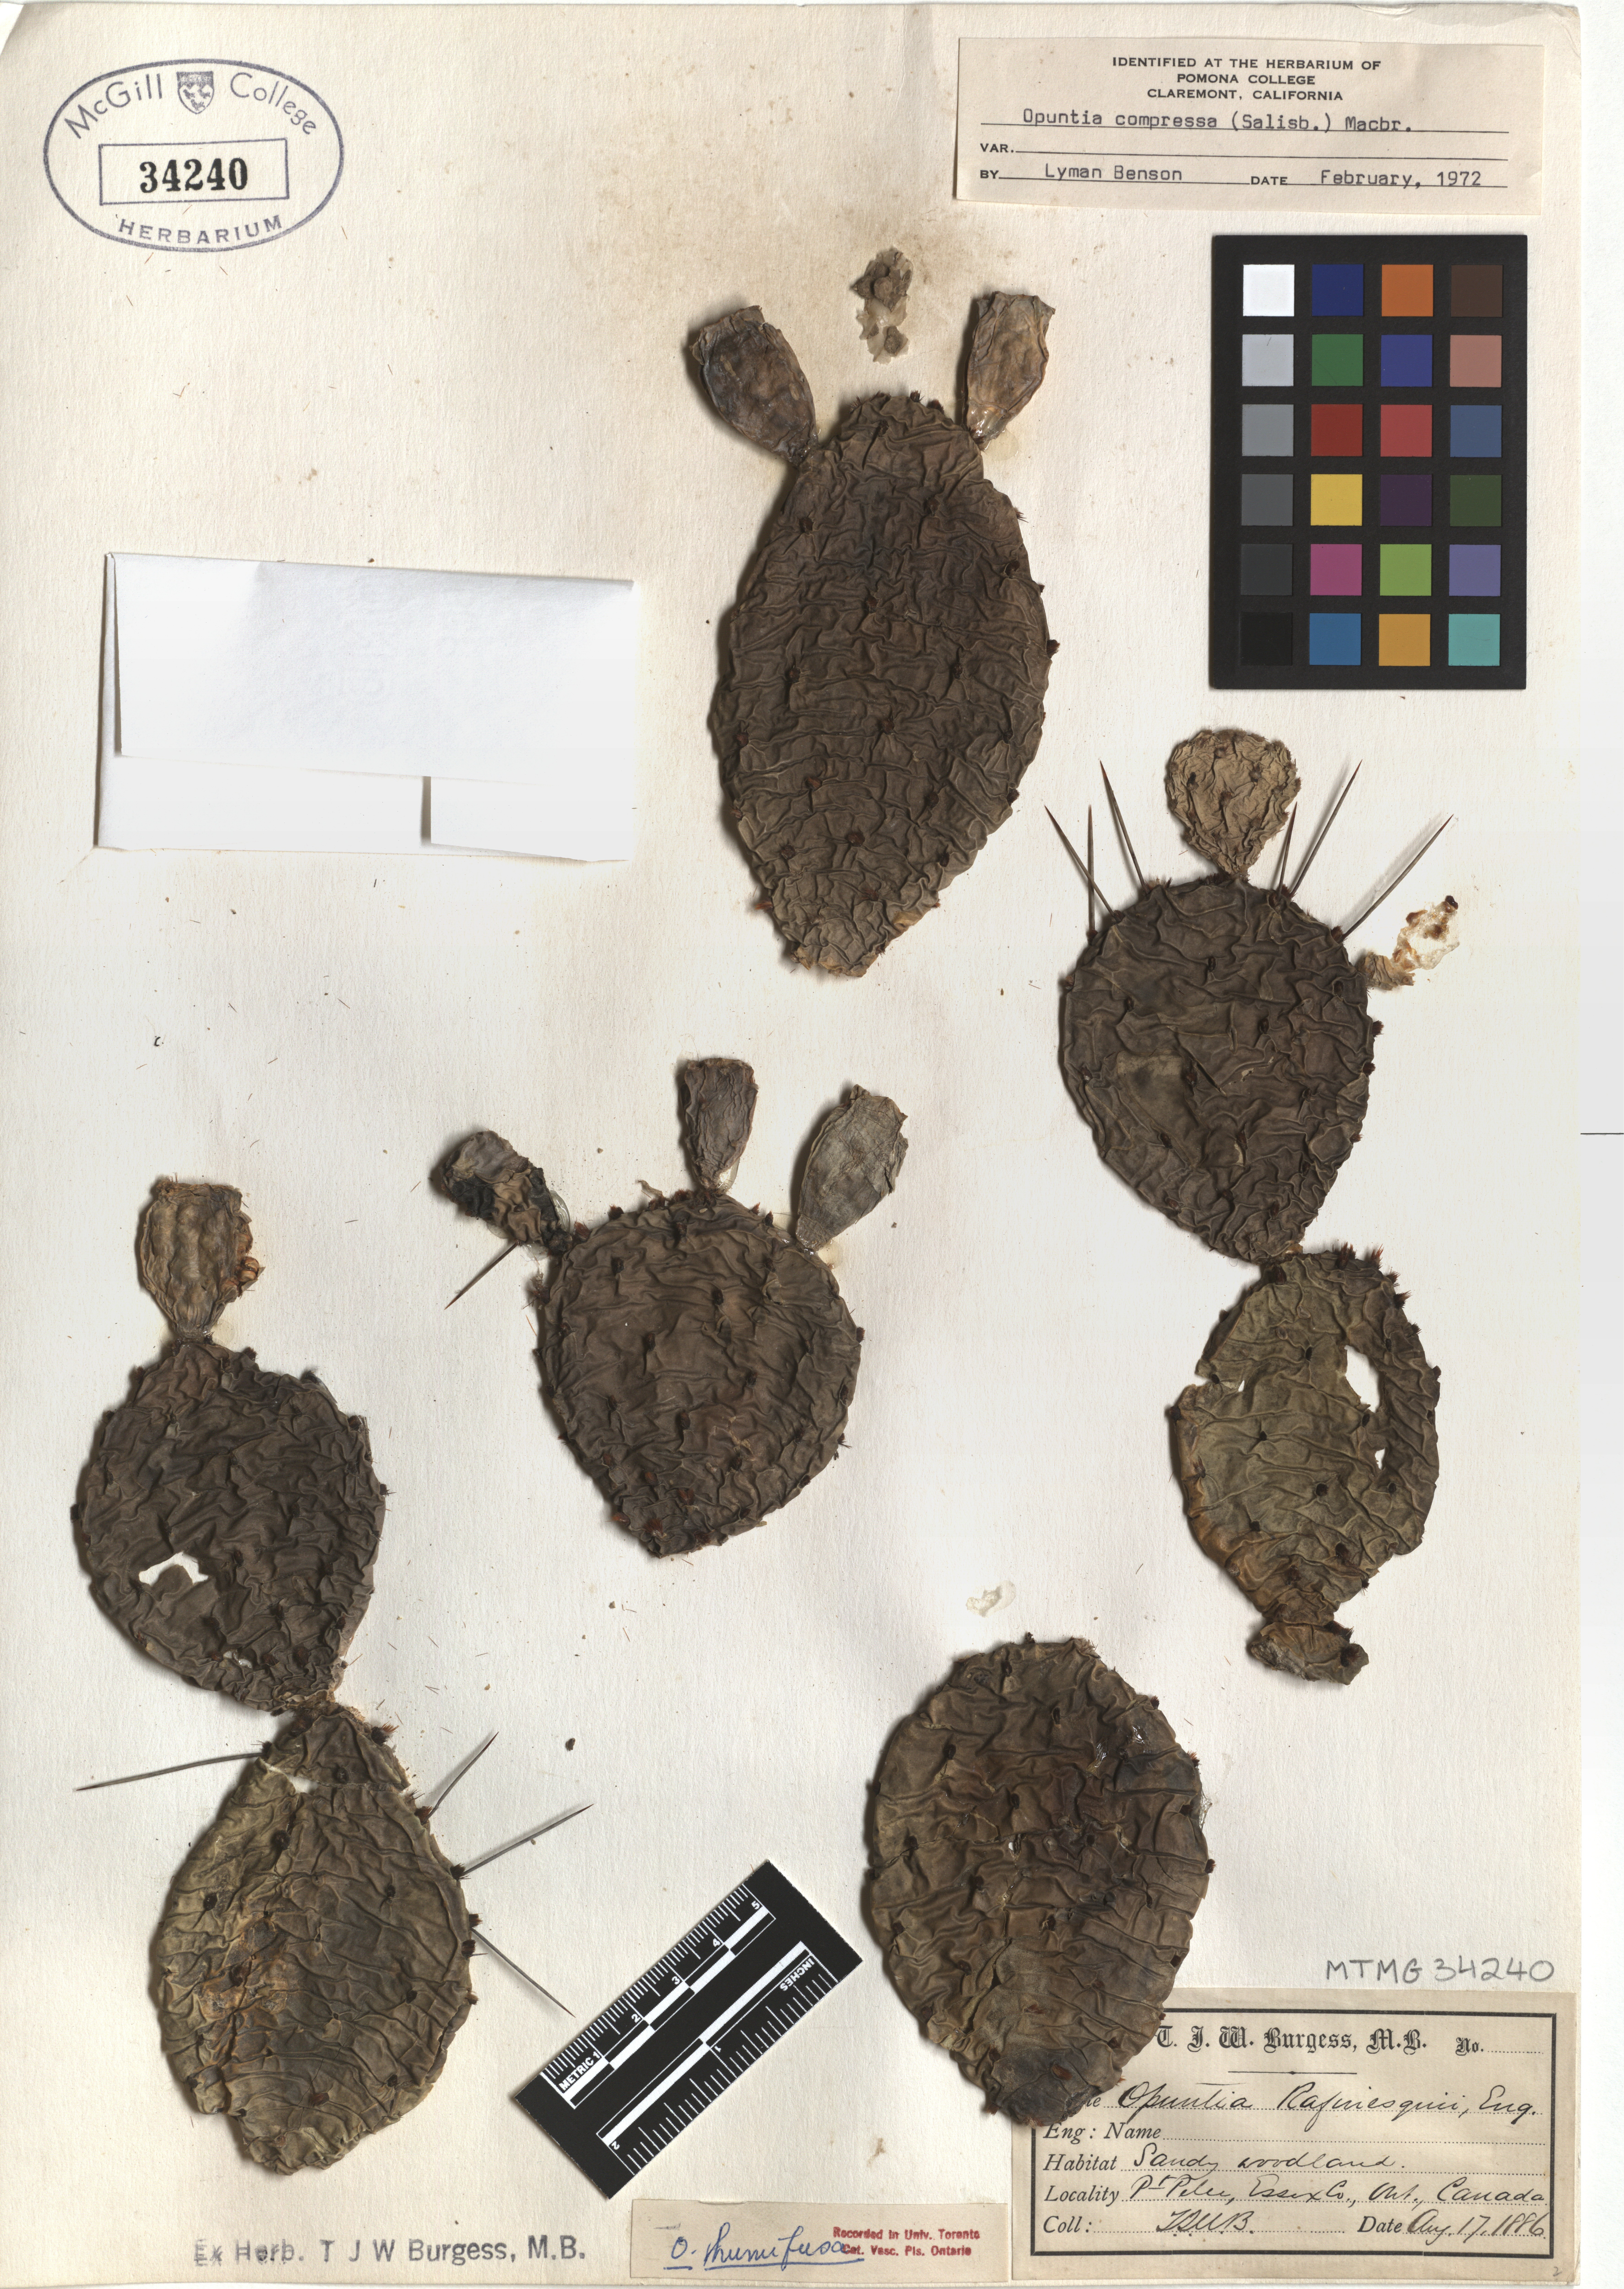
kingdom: Plantae
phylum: Tracheophyta
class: Magnoliopsida
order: Caryophyllales
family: Cactaceae
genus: Opuntia
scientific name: Opuntia humifusa
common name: Eastern prickly-pear
